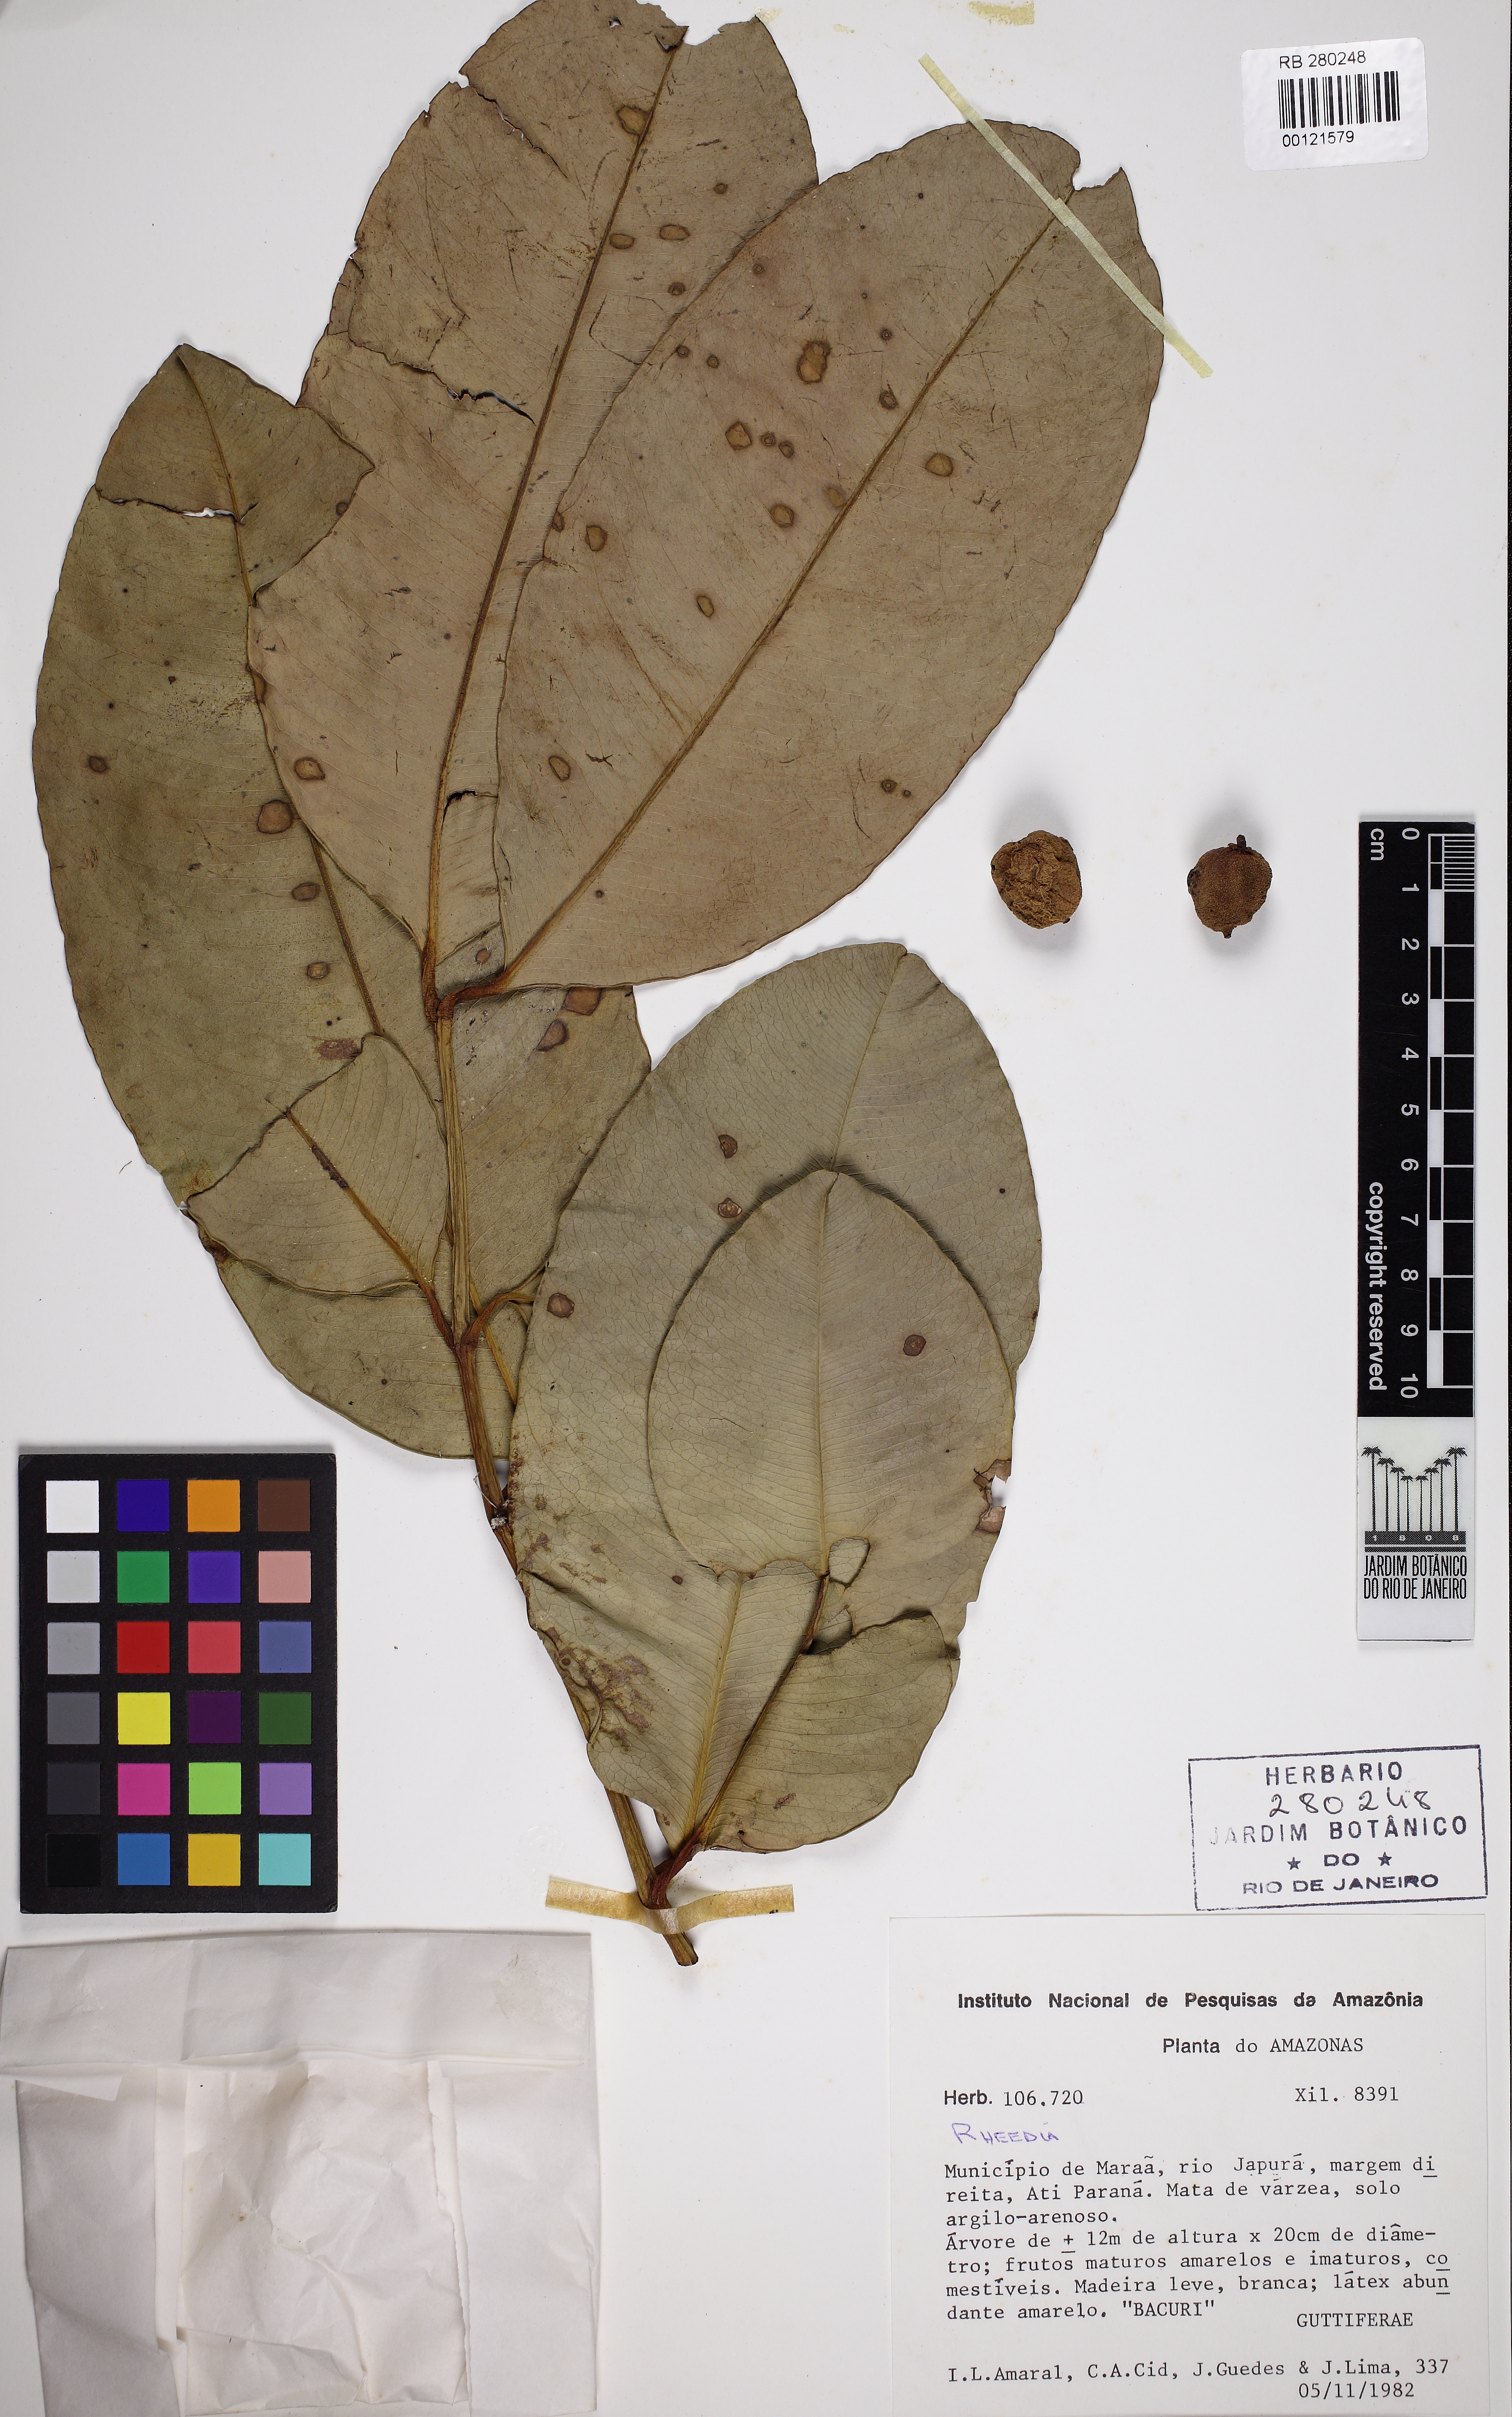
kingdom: Plantae
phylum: Tracheophyta
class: Magnoliopsida
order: Malpighiales
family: Clusiaceae
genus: Garcinia
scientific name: Garcinia fluviatilis
